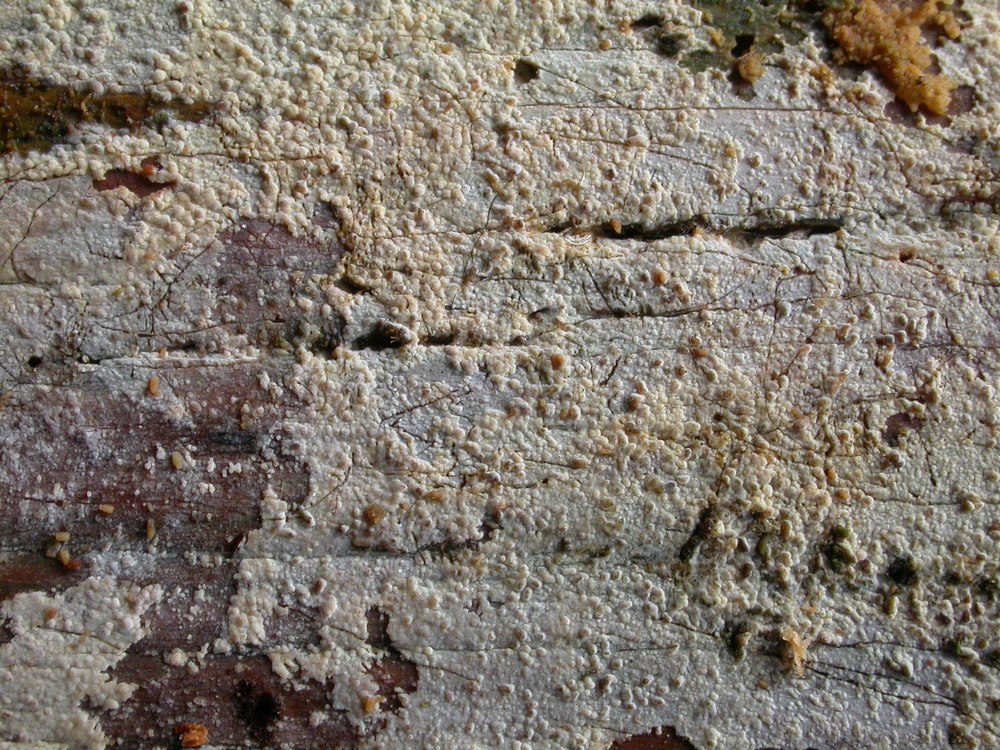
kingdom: Fungi
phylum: Basidiomycota
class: Agaricomycetes
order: Hymenochaetales
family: Hyphodontiaceae
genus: Hyphodontia
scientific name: Hyphodontia alutaria
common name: flaskerenser-nålehinde
